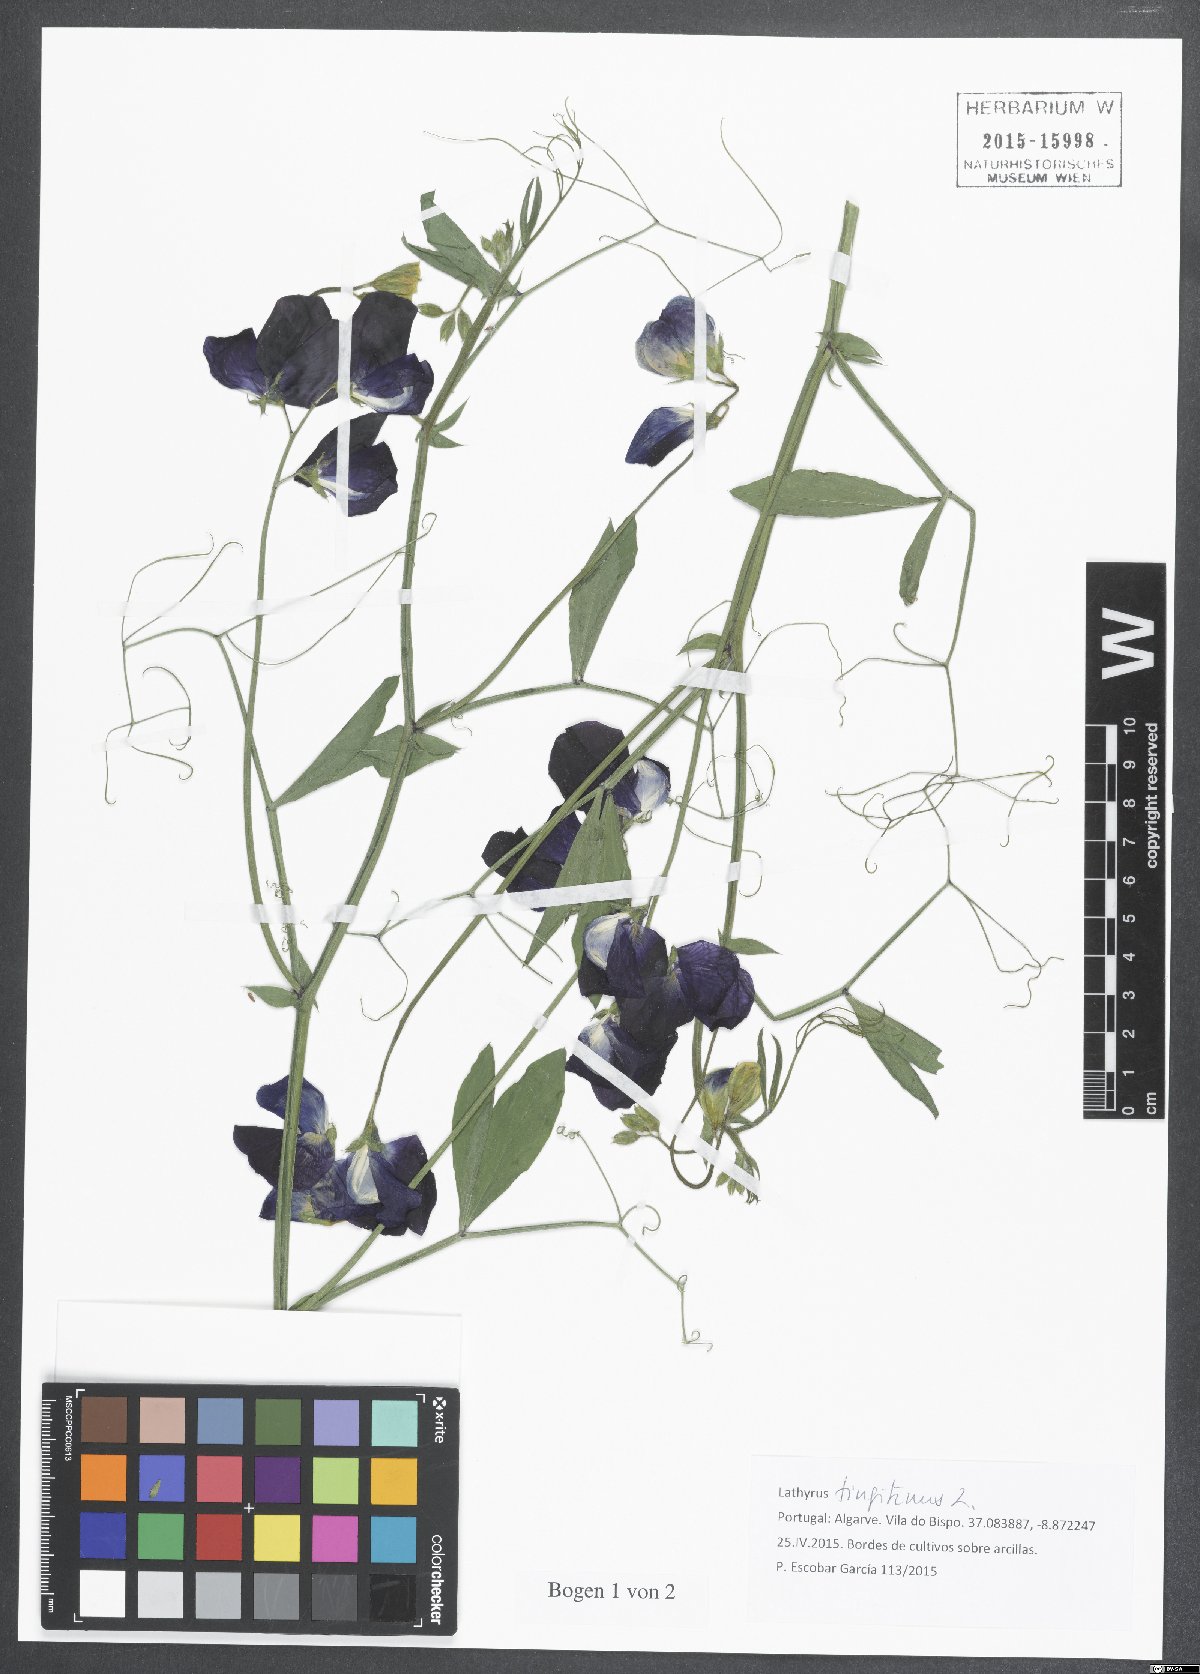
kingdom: Plantae
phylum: Tracheophyta
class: Magnoliopsida
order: Fabales
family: Fabaceae
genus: Lathyrus
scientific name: Lathyrus tingitanus
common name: Tangier pea
